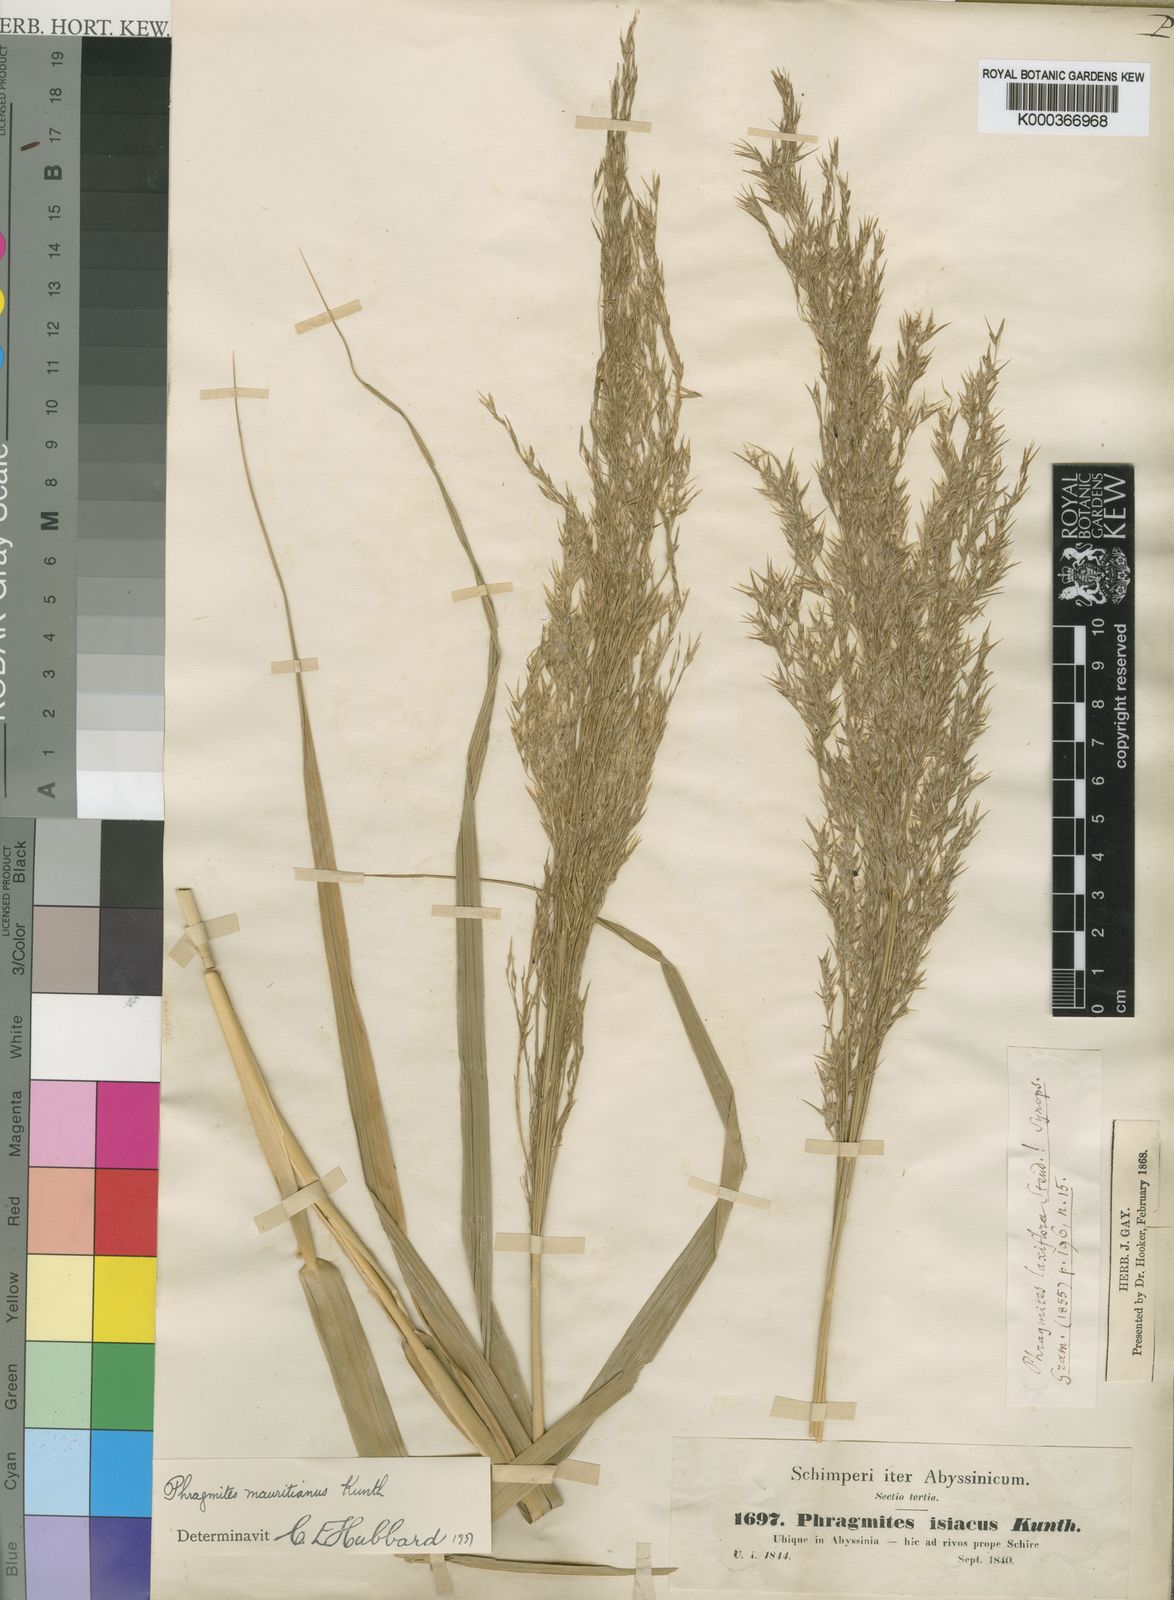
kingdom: Plantae
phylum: Tracheophyta
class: Liliopsida
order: Poales
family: Poaceae
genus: Phragmites
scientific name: Phragmites mauritianus
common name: Reed grass
